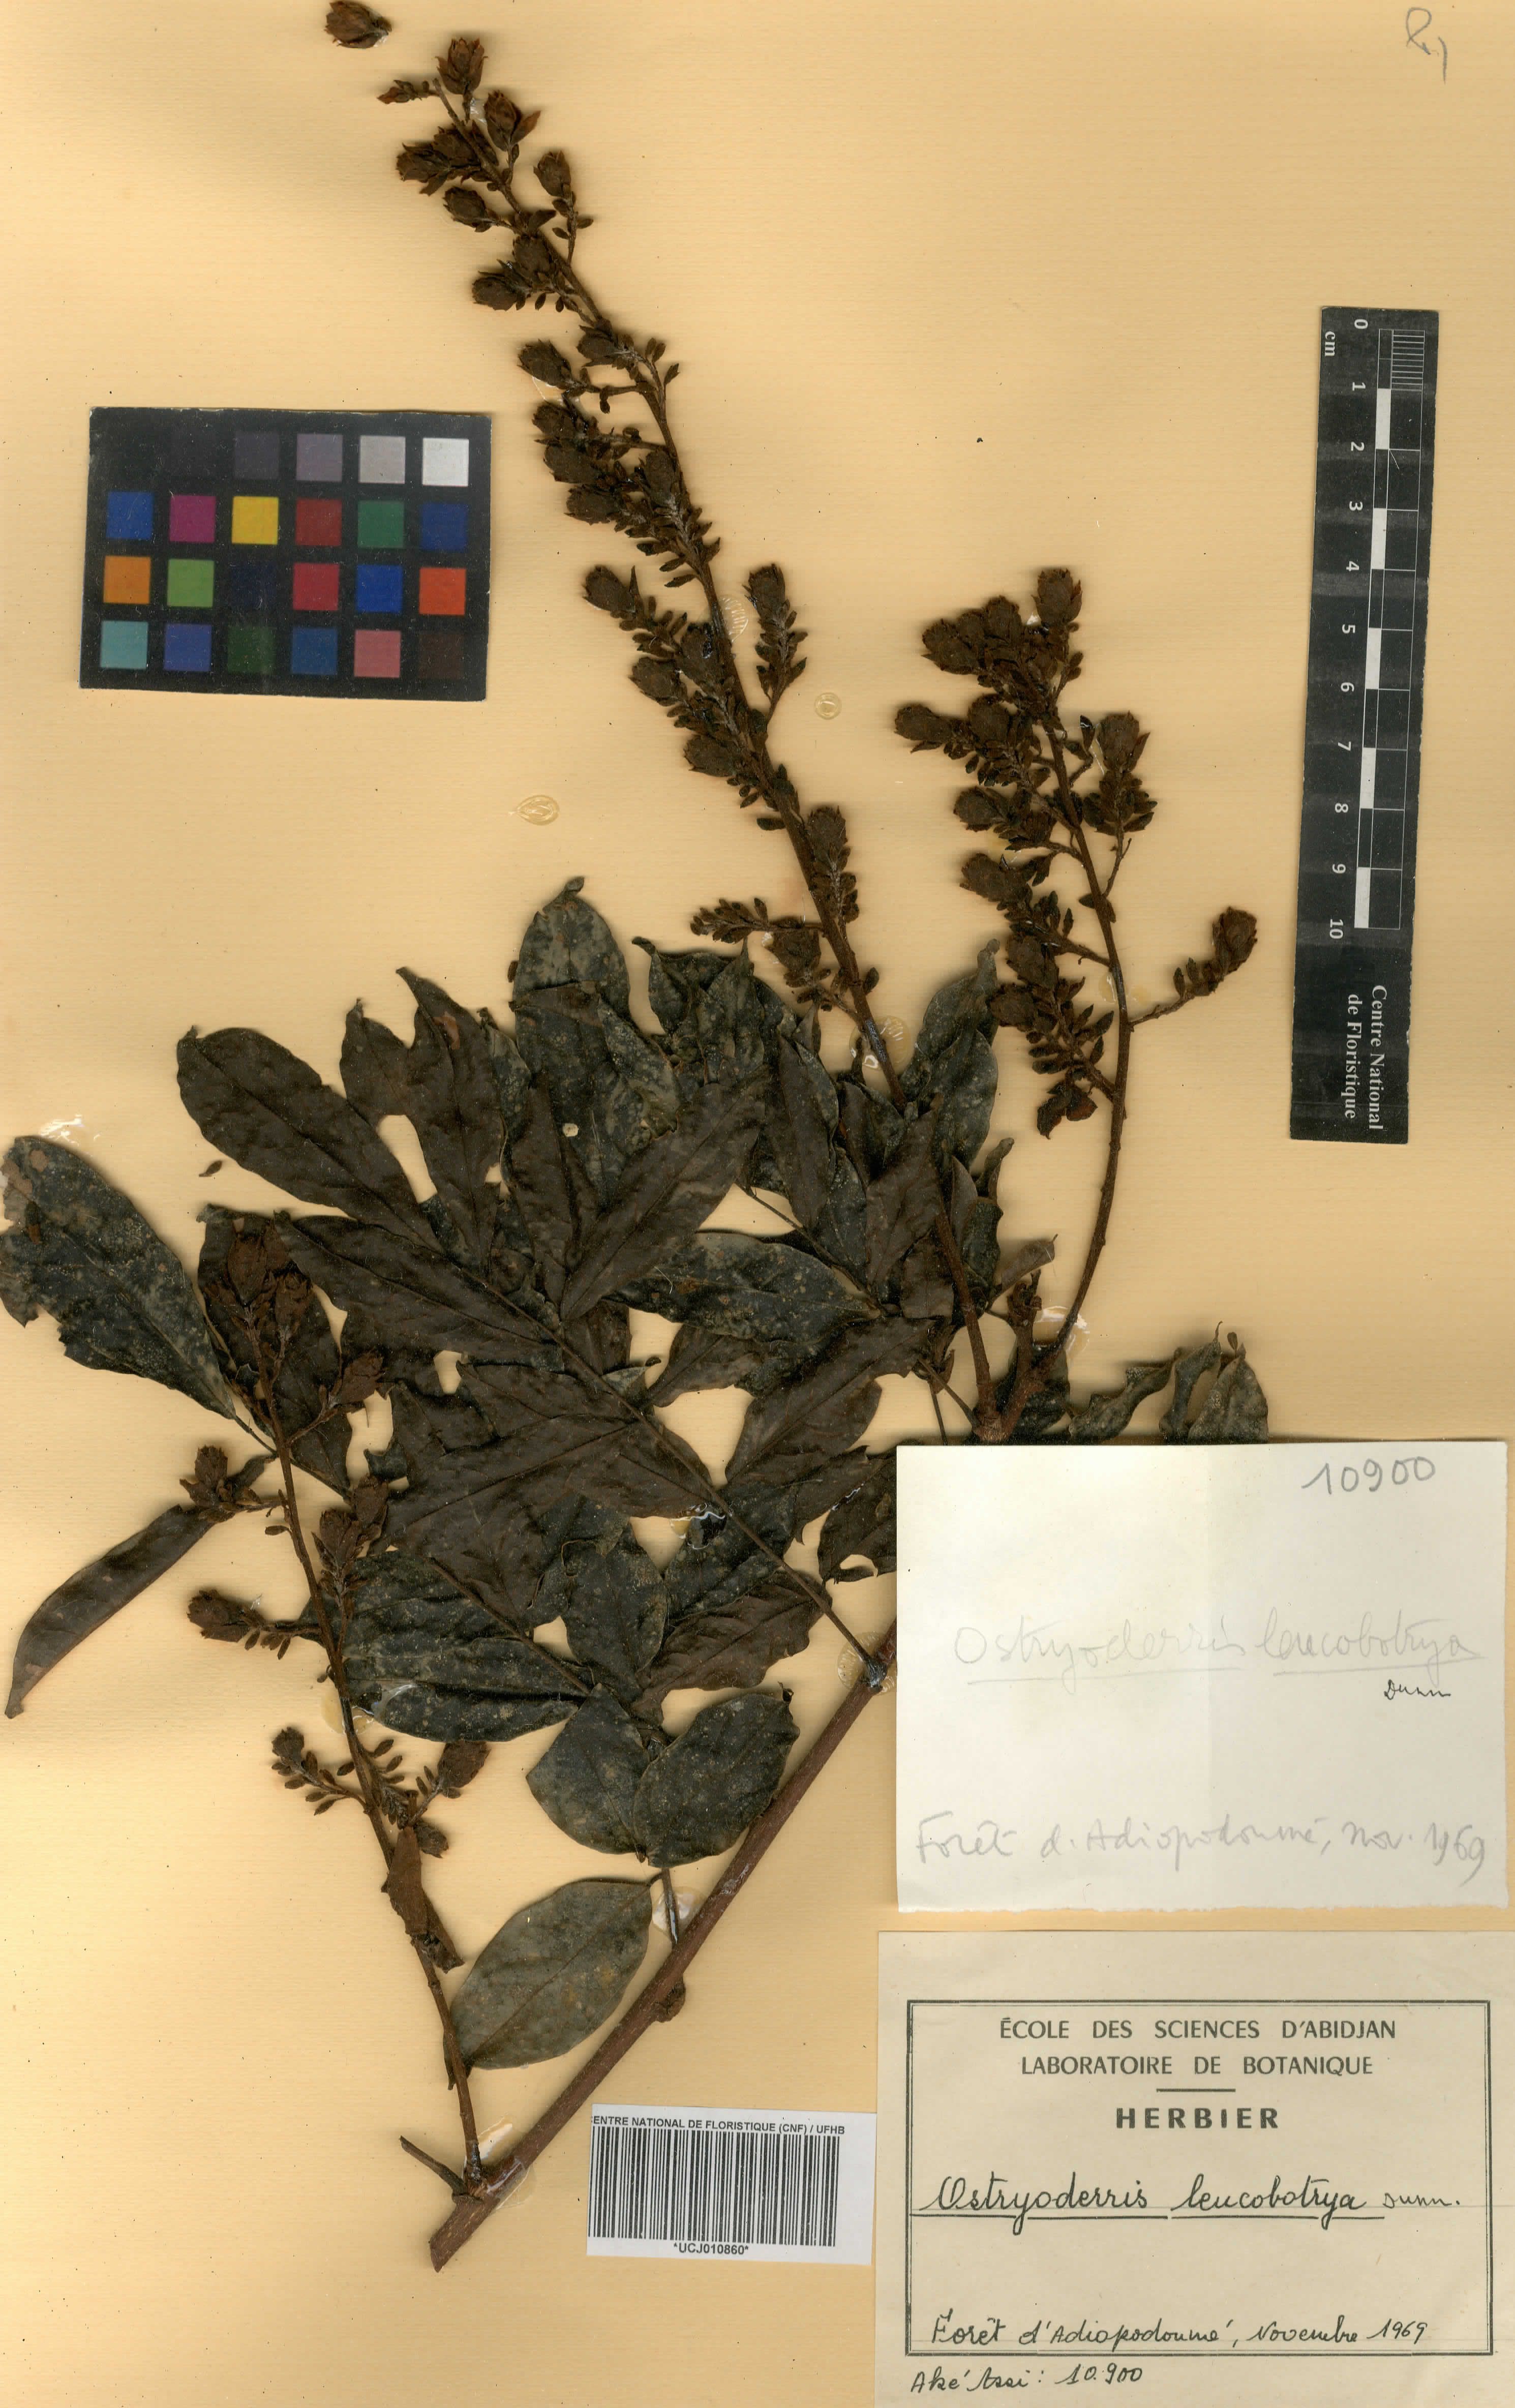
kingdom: Plantae
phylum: Tracheophyta
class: Magnoliopsida
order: Fabales
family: Fabaceae
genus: Aganope
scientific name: Aganope leucobotrya
